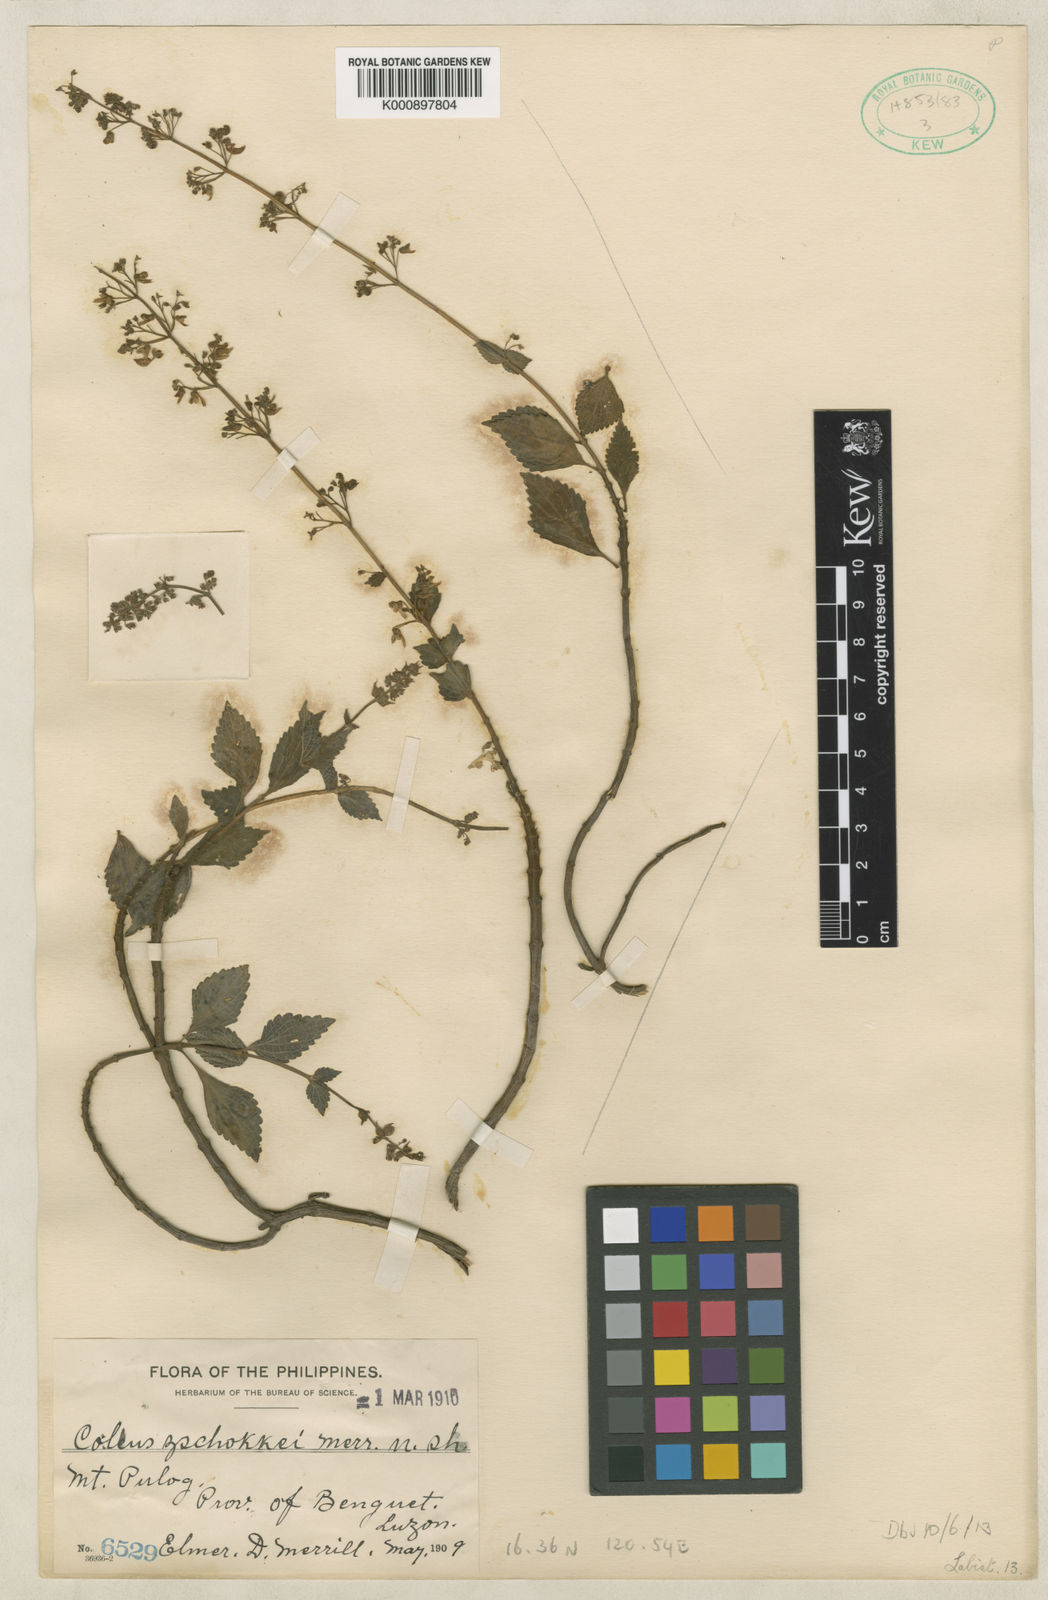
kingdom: Plantae
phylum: Tracheophyta
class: Magnoliopsida
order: Lamiales
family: Lamiaceae
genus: Coleus
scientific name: Coleus
